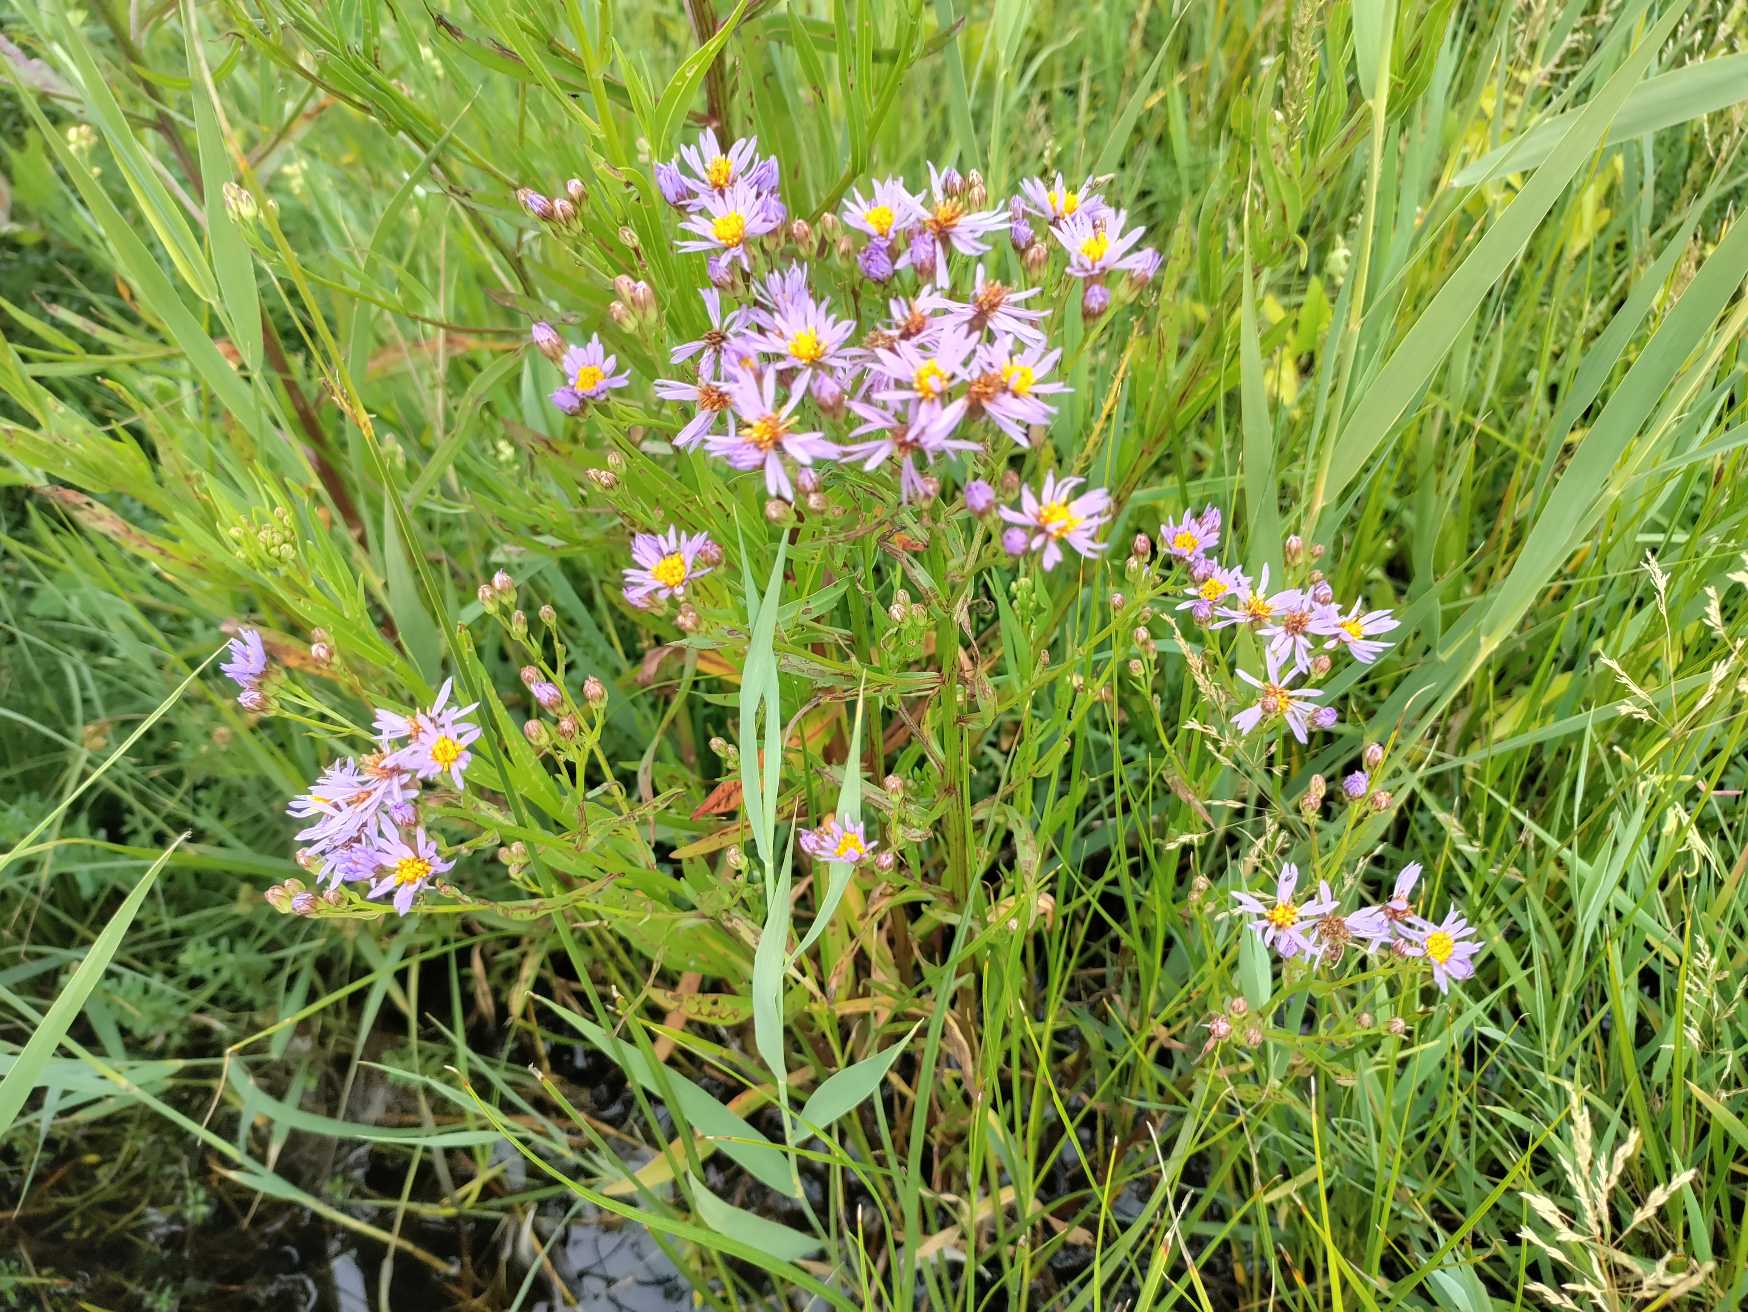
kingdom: Plantae
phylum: Tracheophyta
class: Magnoliopsida
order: Asterales
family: Asteraceae
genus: Tripolium
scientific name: Tripolium pannonicum
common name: Strandasters
